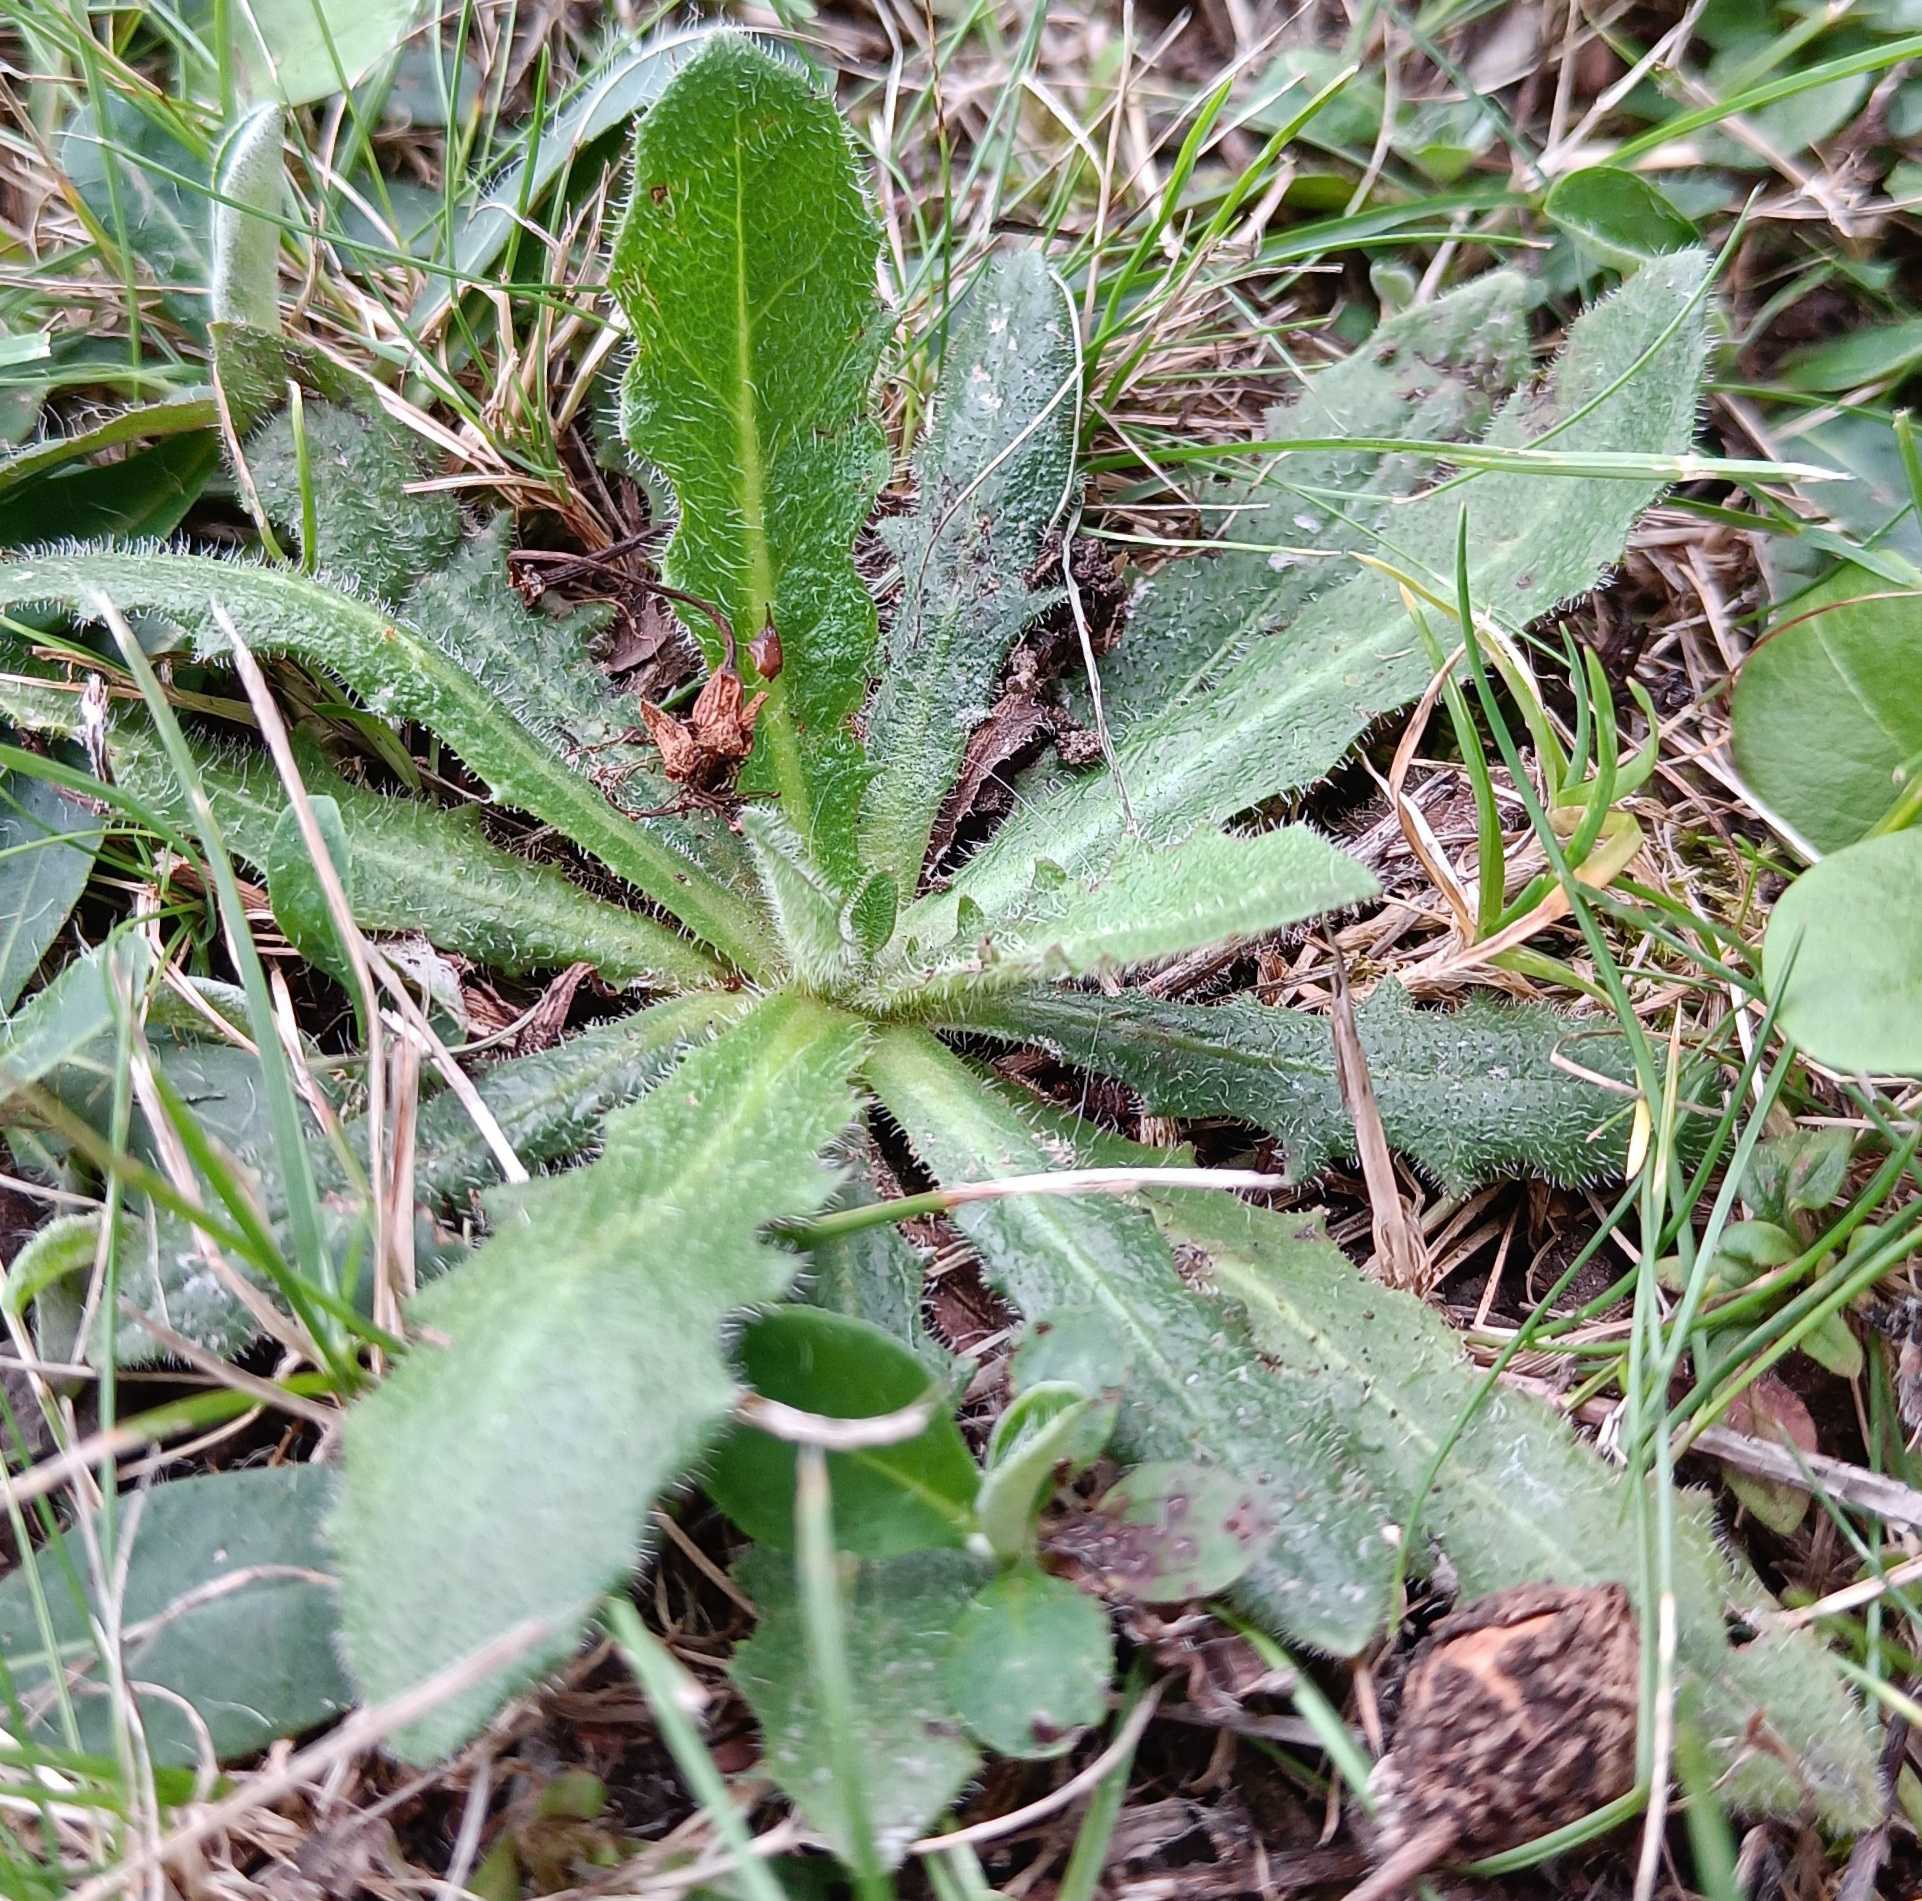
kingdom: Plantae
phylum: Tracheophyta
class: Magnoliopsida
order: Asterales
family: Asteraceae
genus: Hypochaeris
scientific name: Hypochaeris radicata
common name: Almindelig kongepen
